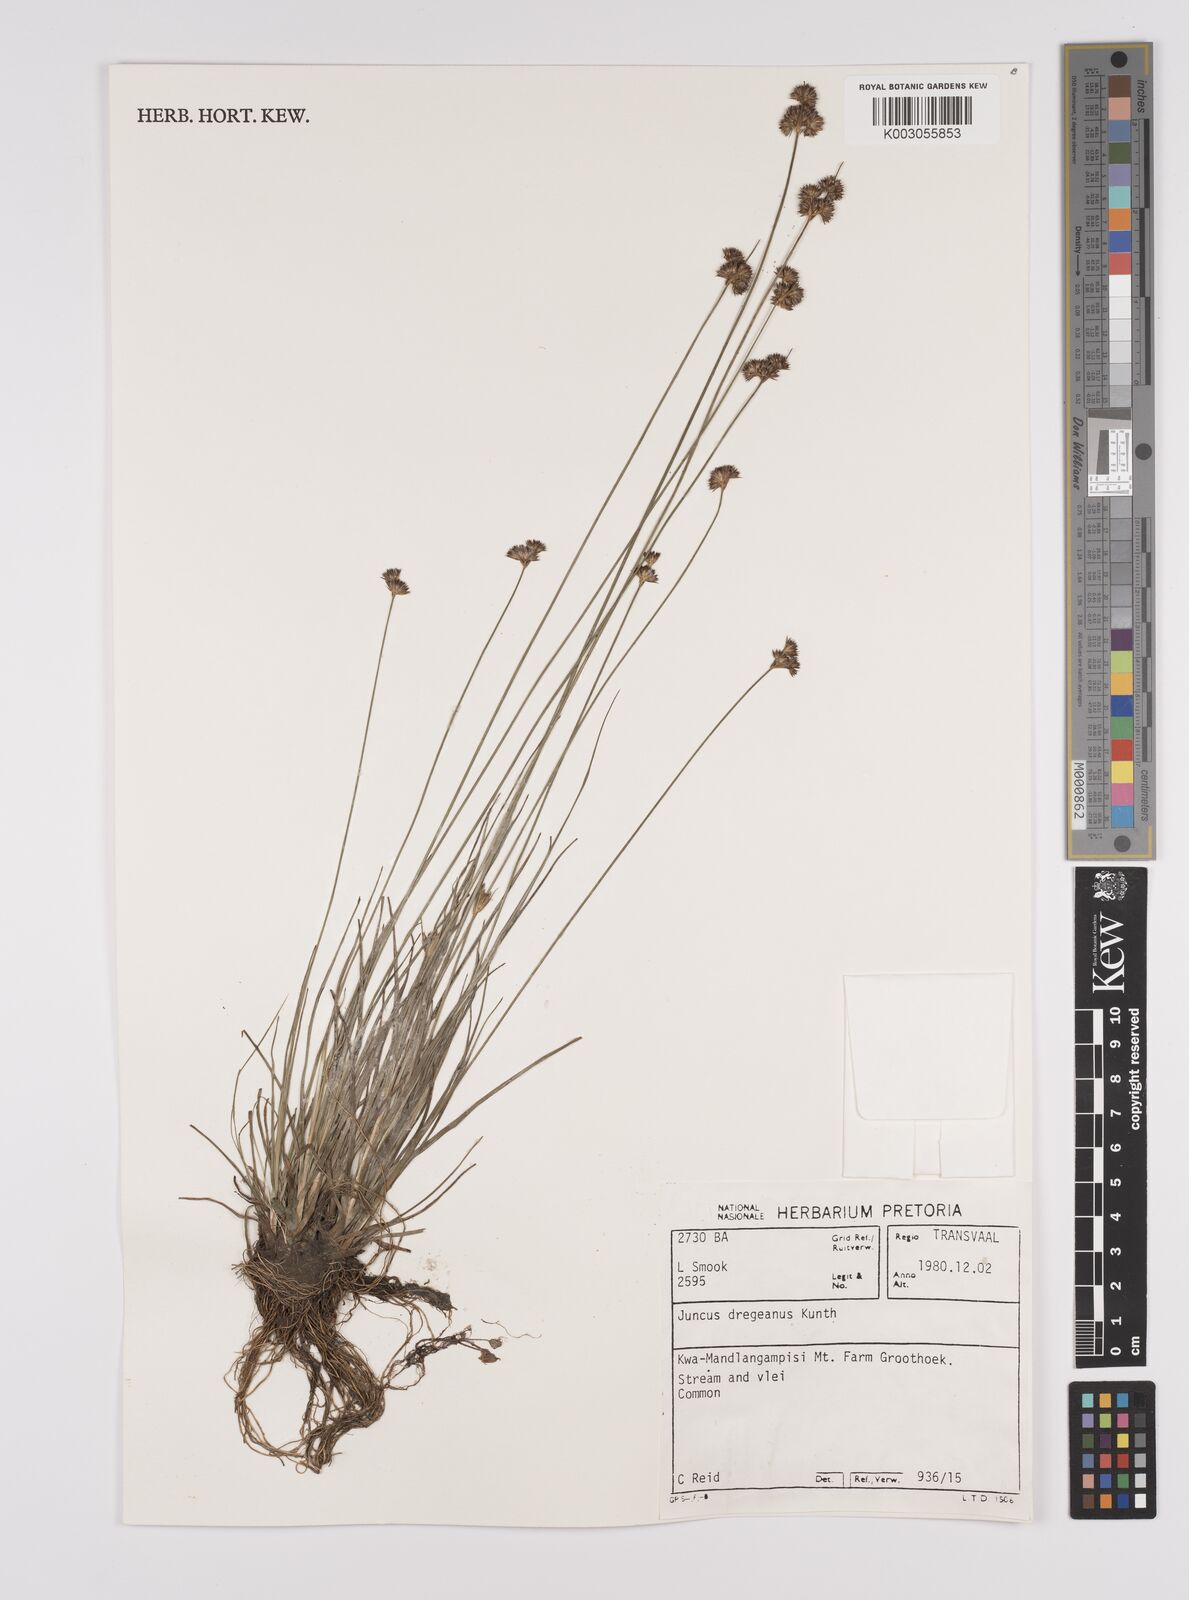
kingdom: Plantae
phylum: Tracheophyta
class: Liliopsida
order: Poales
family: Juncaceae
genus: Juncus
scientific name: Juncus dregeanus
